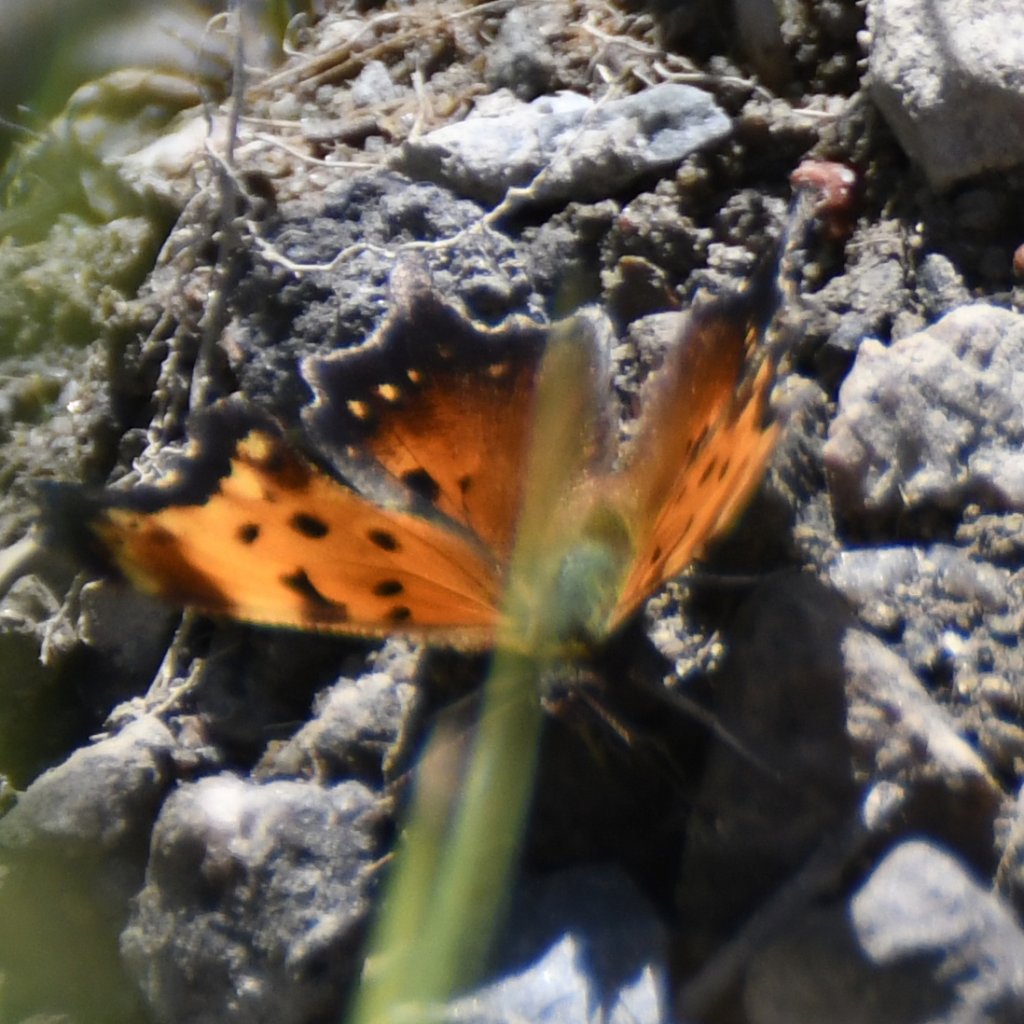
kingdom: Animalia
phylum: Arthropoda
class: Insecta
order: Lepidoptera
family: Nymphalidae
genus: Polygonia
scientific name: Polygonia progne
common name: Gray Comma
